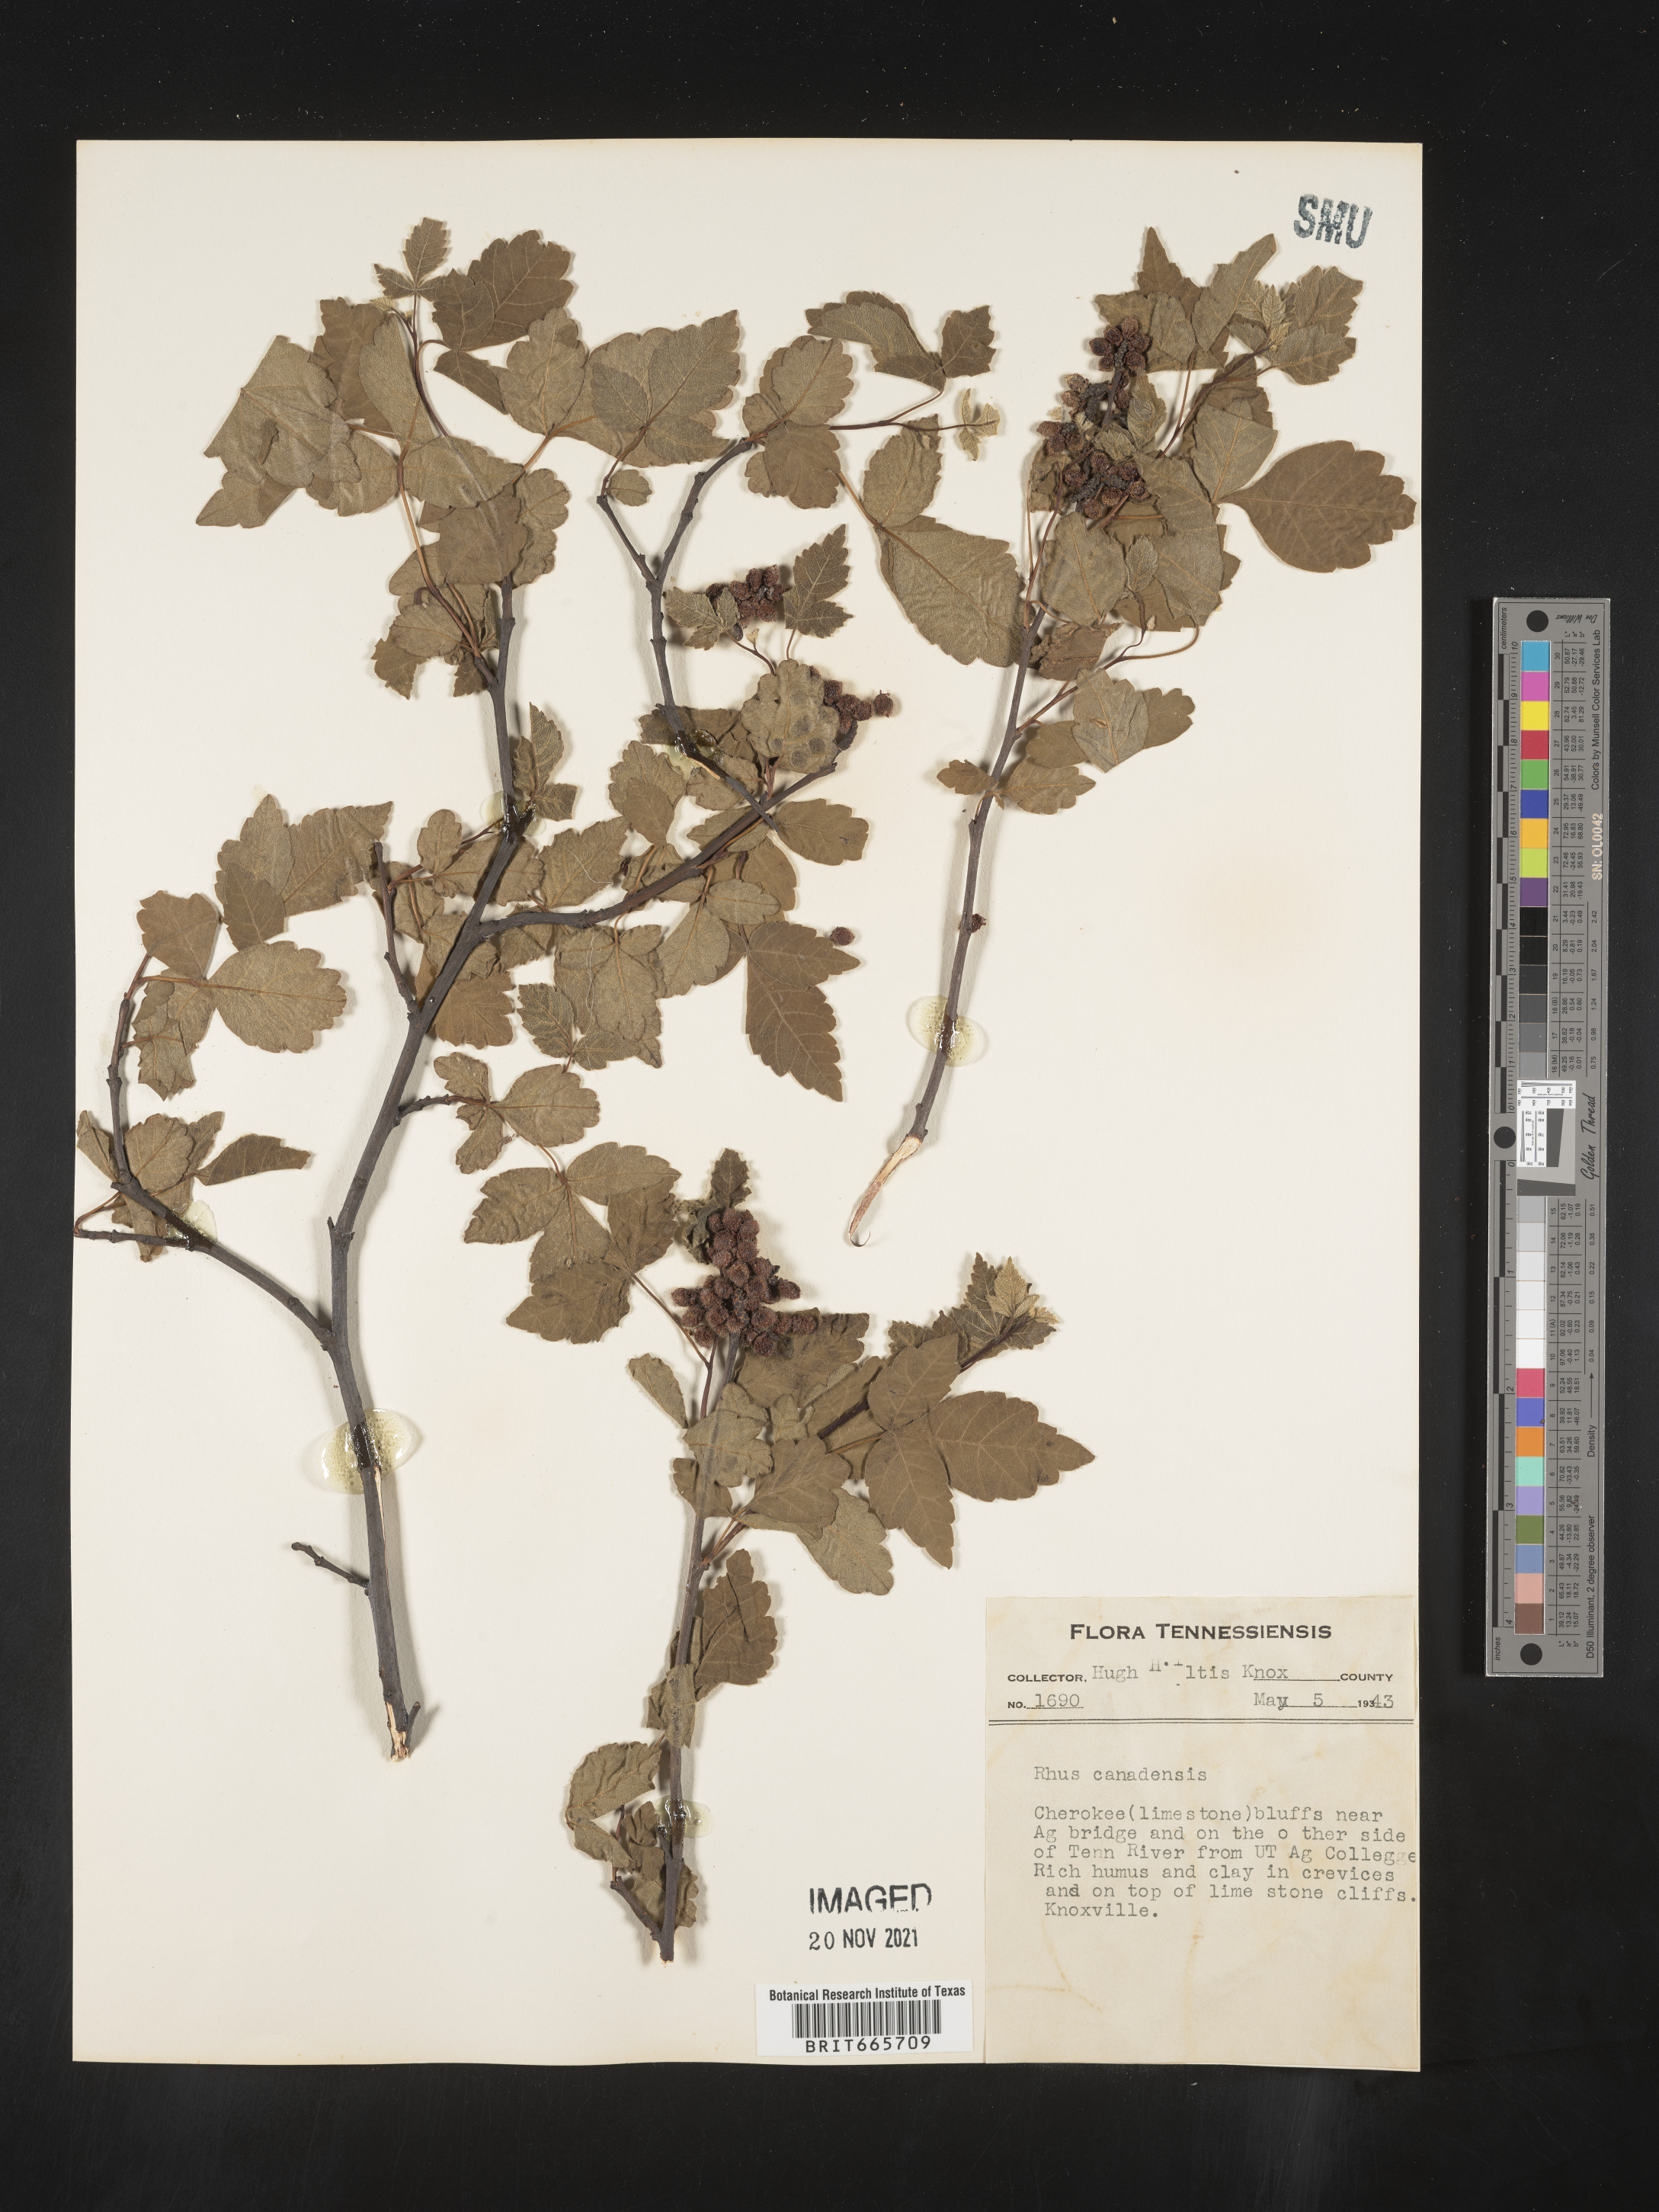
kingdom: Plantae
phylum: Tracheophyta
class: Magnoliopsida
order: Sapindales
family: Anacardiaceae
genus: Rhus
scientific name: Rhus aromatica
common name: Aromatic sumac
